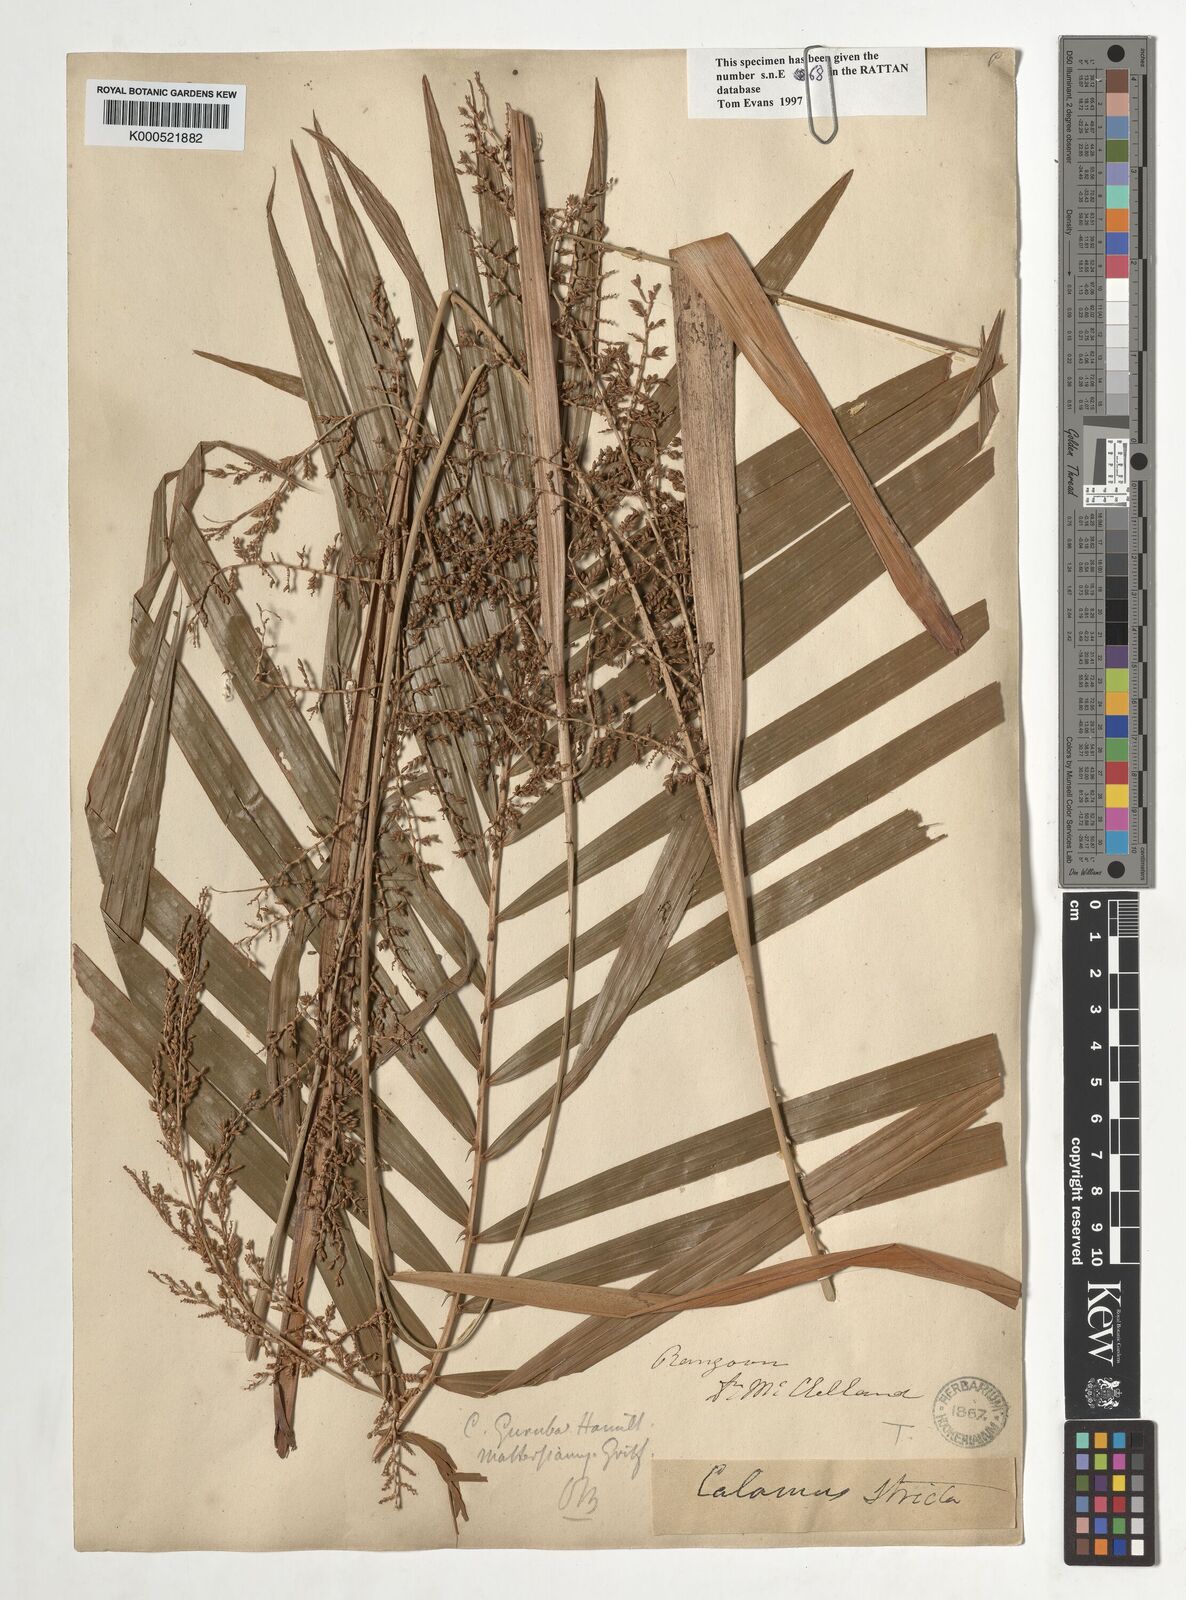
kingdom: Plantae
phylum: Tracheophyta
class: Liliopsida
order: Arecales
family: Arecaceae
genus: Calamus
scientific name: Calamus
